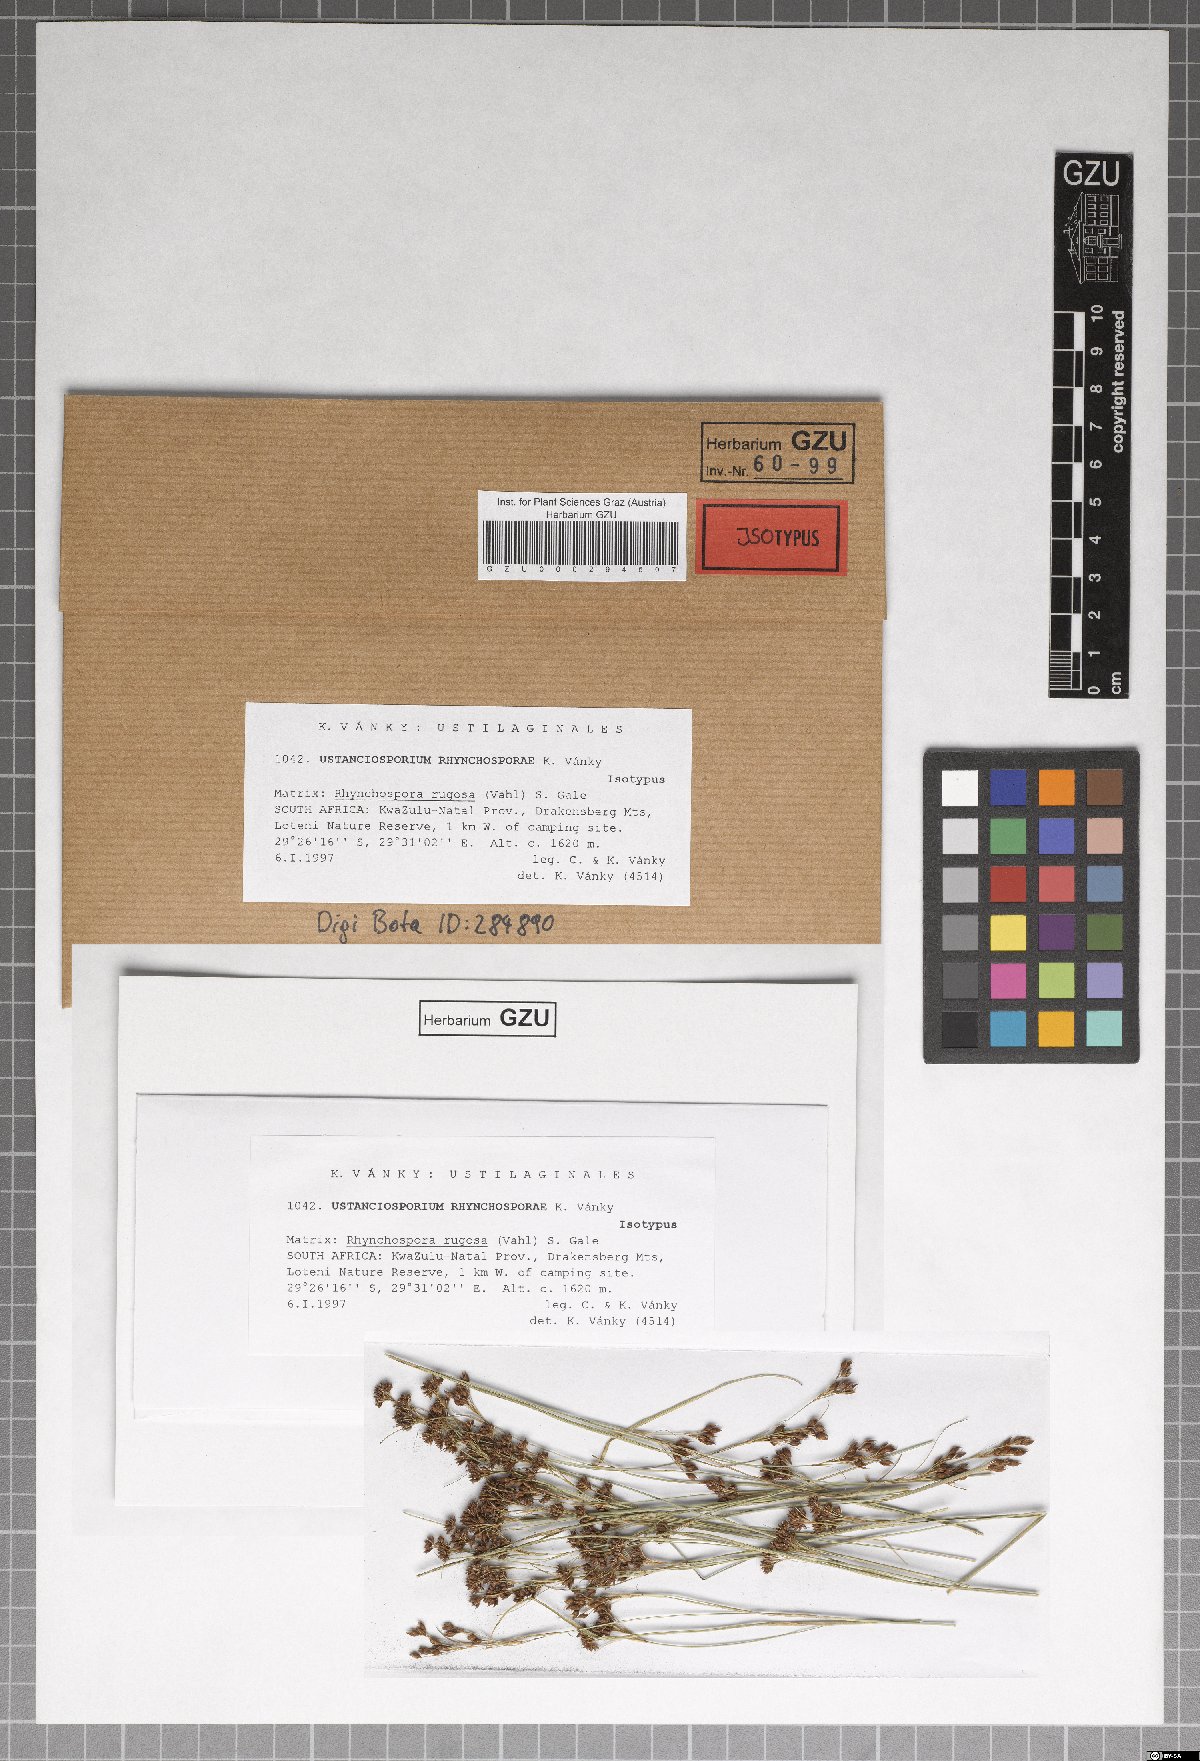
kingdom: Fungi
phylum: Basidiomycota
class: Ustilaginomycetes
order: Ustilaginales
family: Anthracoideaceae
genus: Ustanciosporium
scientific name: Ustanciosporium rhynchosporae
